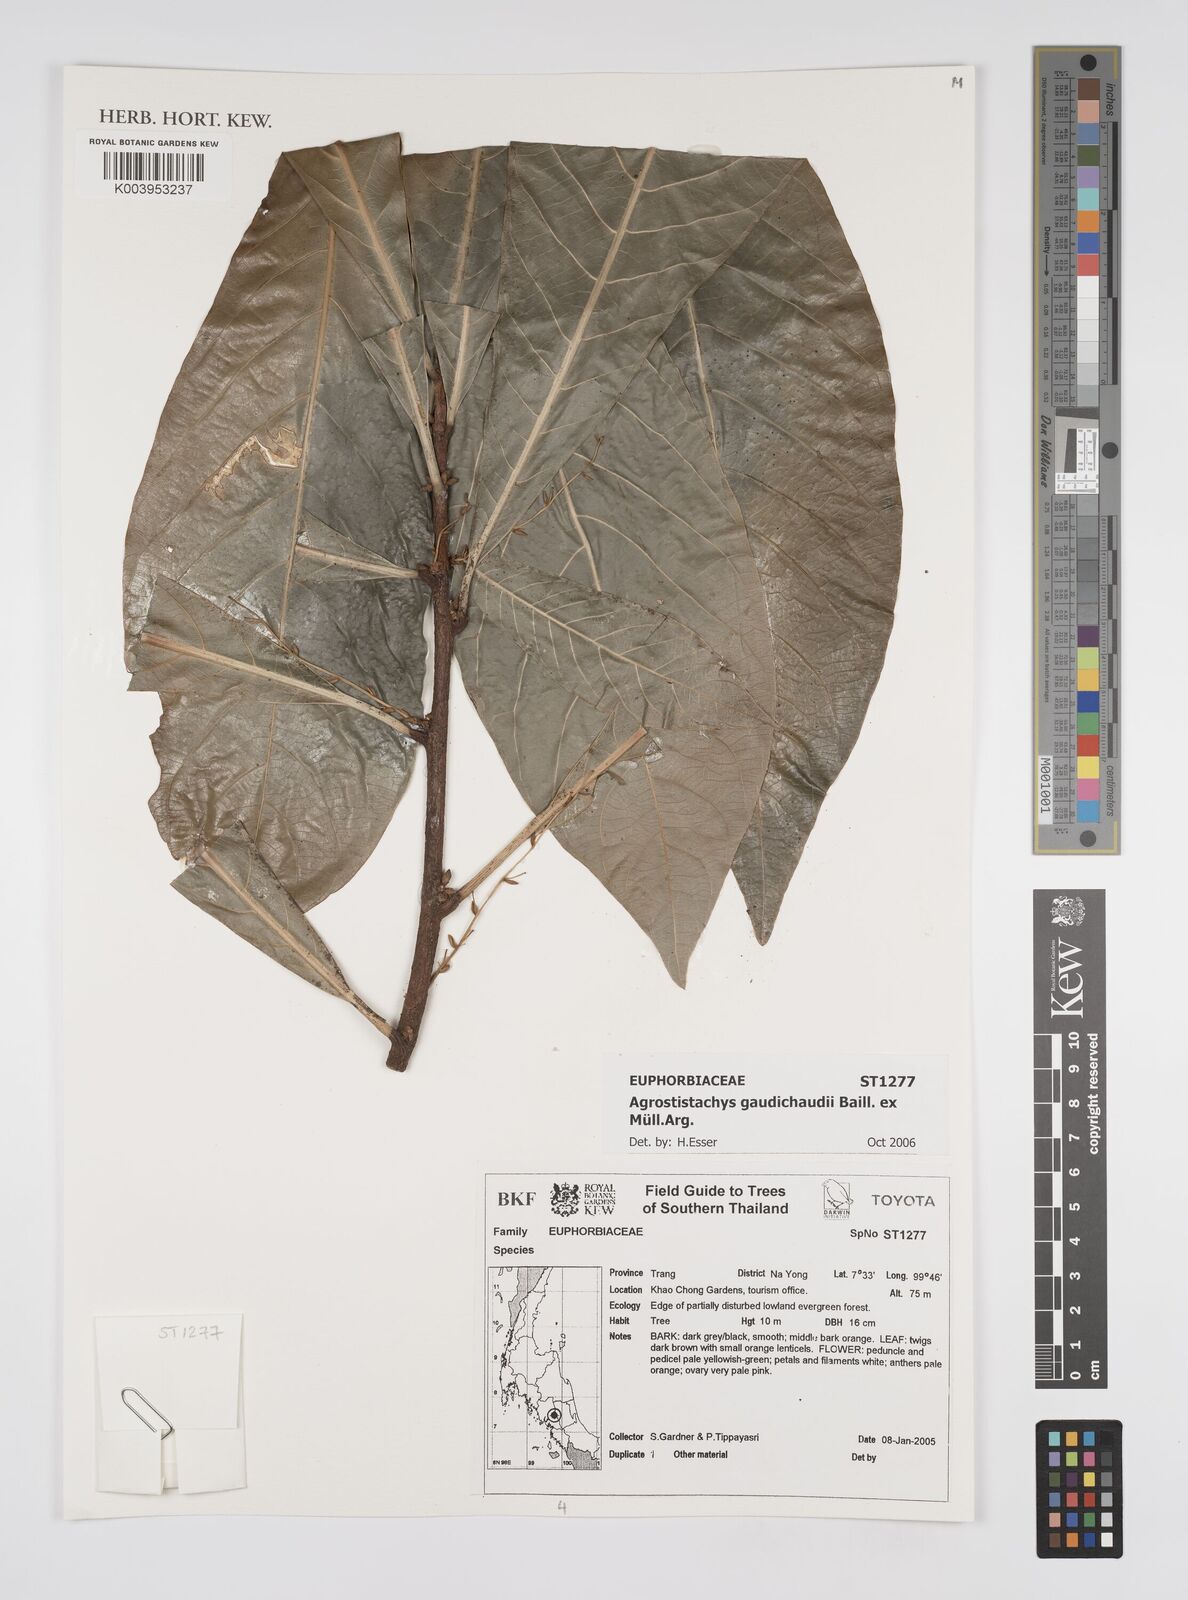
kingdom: Plantae
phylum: Tracheophyta
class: Magnoliopsida
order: Malpighiales
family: Euphorbiaceae
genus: Agrostistachys
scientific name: Agrostistachys gaudichaudii
